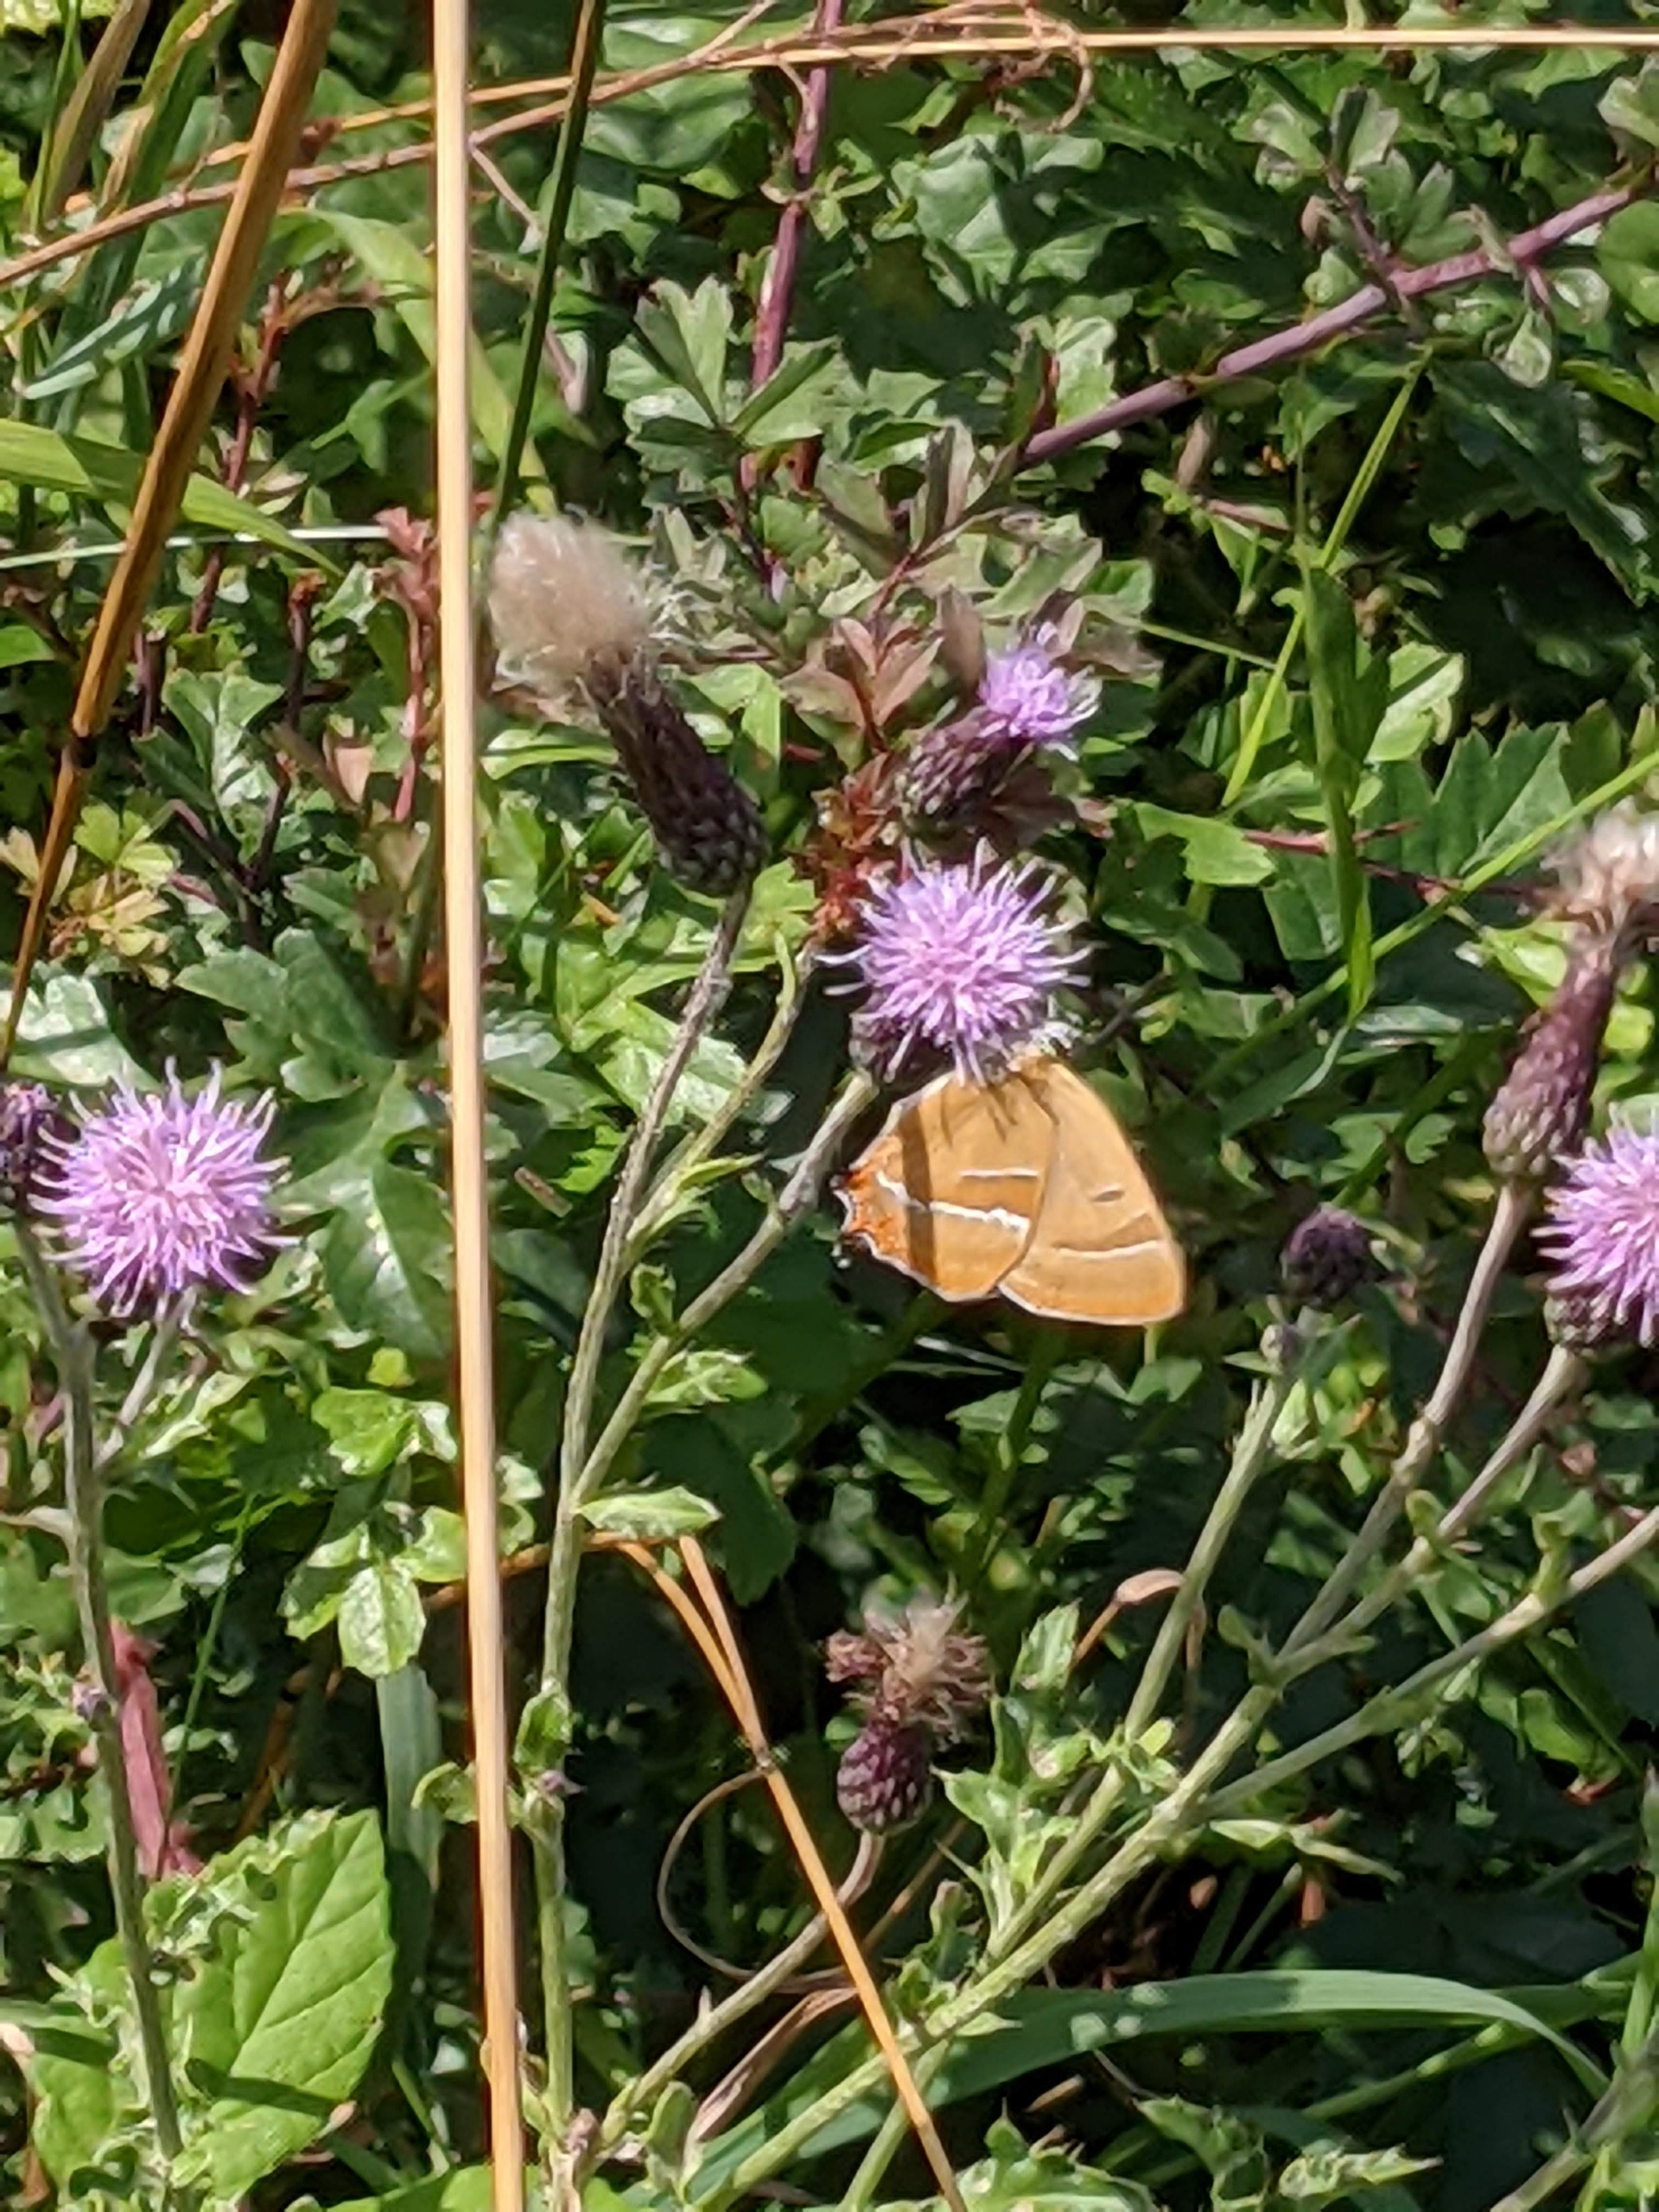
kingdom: Animalia
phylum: Arthropoda
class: Insecta
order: Lepidoptera
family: Lycaenidae
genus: Thecla
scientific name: Thecla betulae
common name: Guldhale
